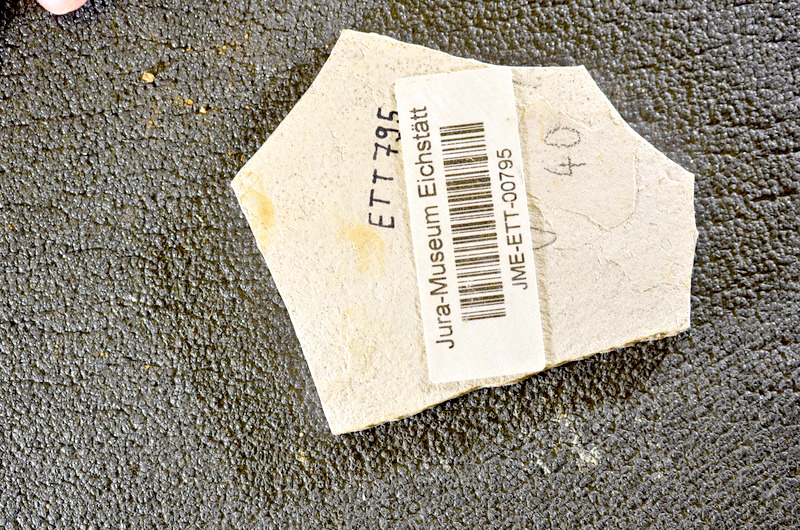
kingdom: Animalia
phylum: Chordata
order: Salmoniformes
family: Orthogonikleithridae
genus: Orthogonikleithrus
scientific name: Orthogonikleithrus hoelli
